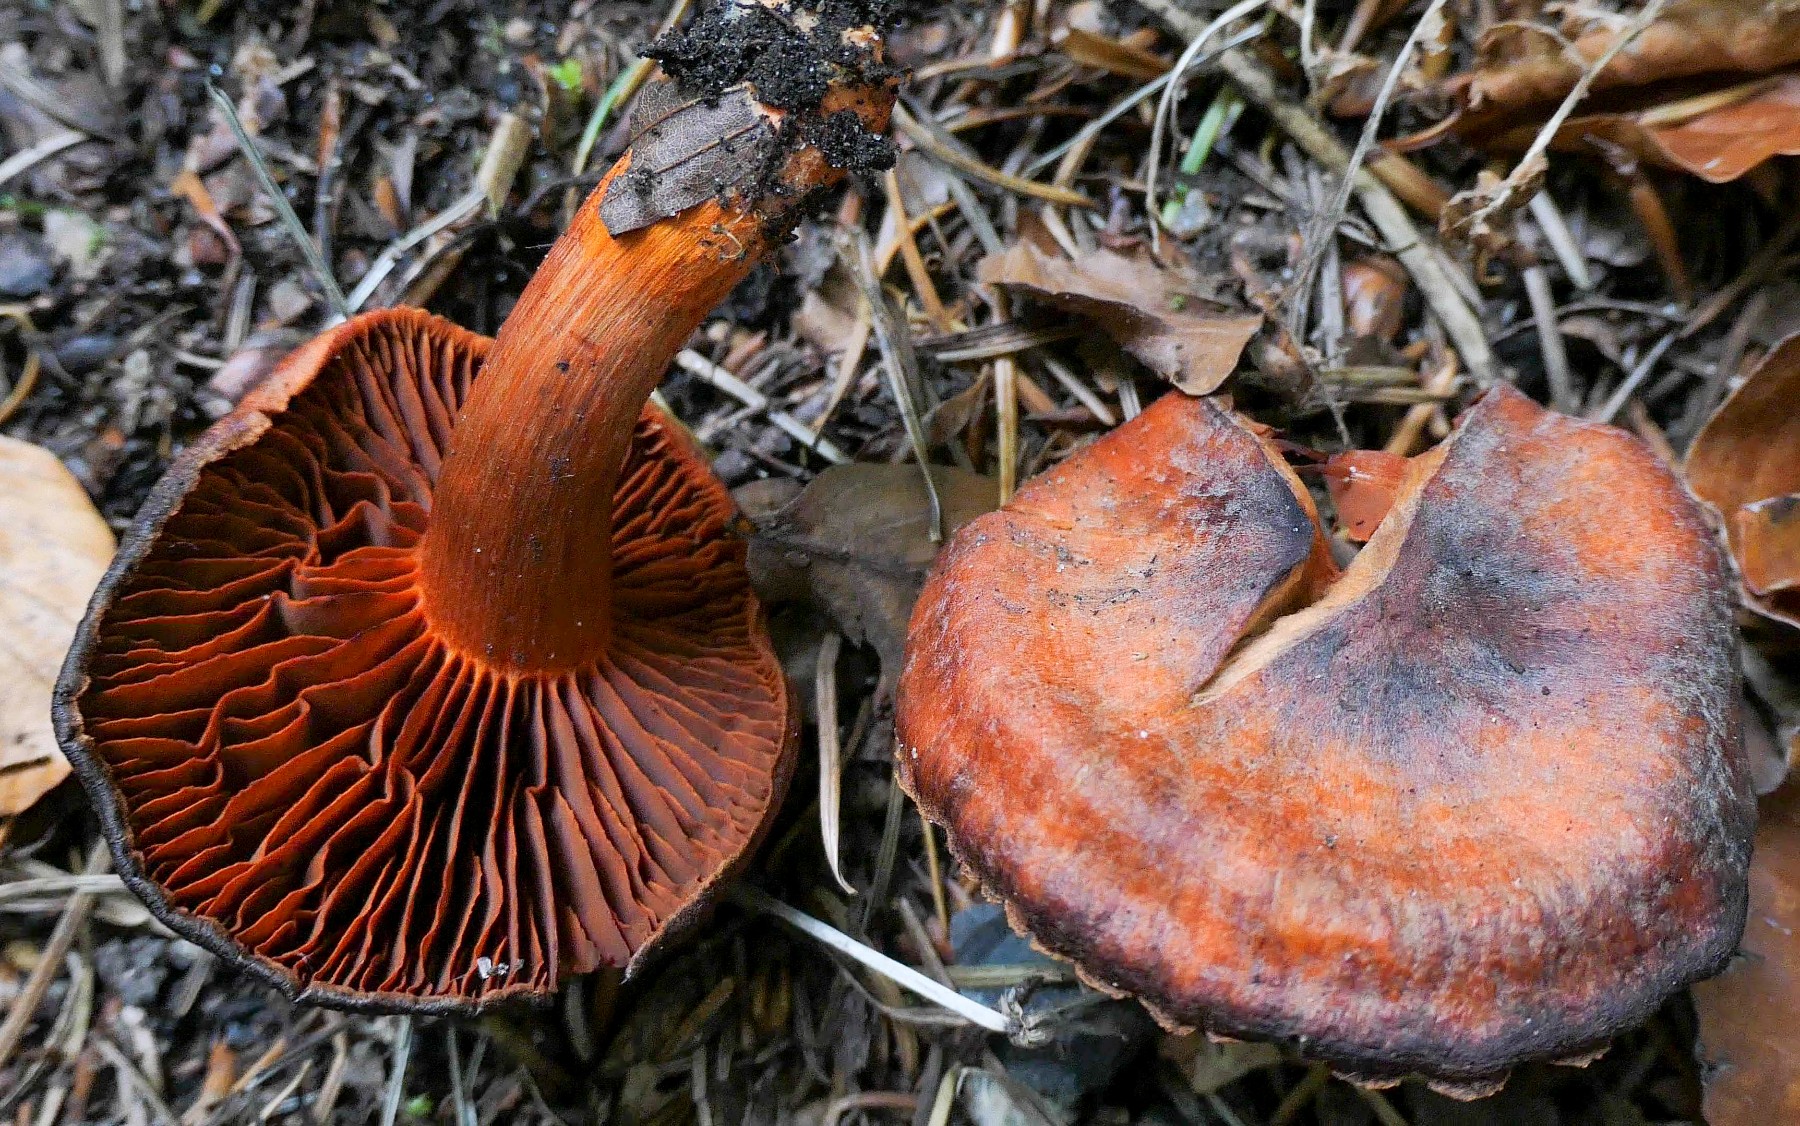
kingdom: Fungi
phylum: Basidiomycota
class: Agaricomycetes
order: Agaricales
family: Cortinariaceae
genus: Cortinarius
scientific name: Cortinarius cinnabarinus
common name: cinnober-slørhat
